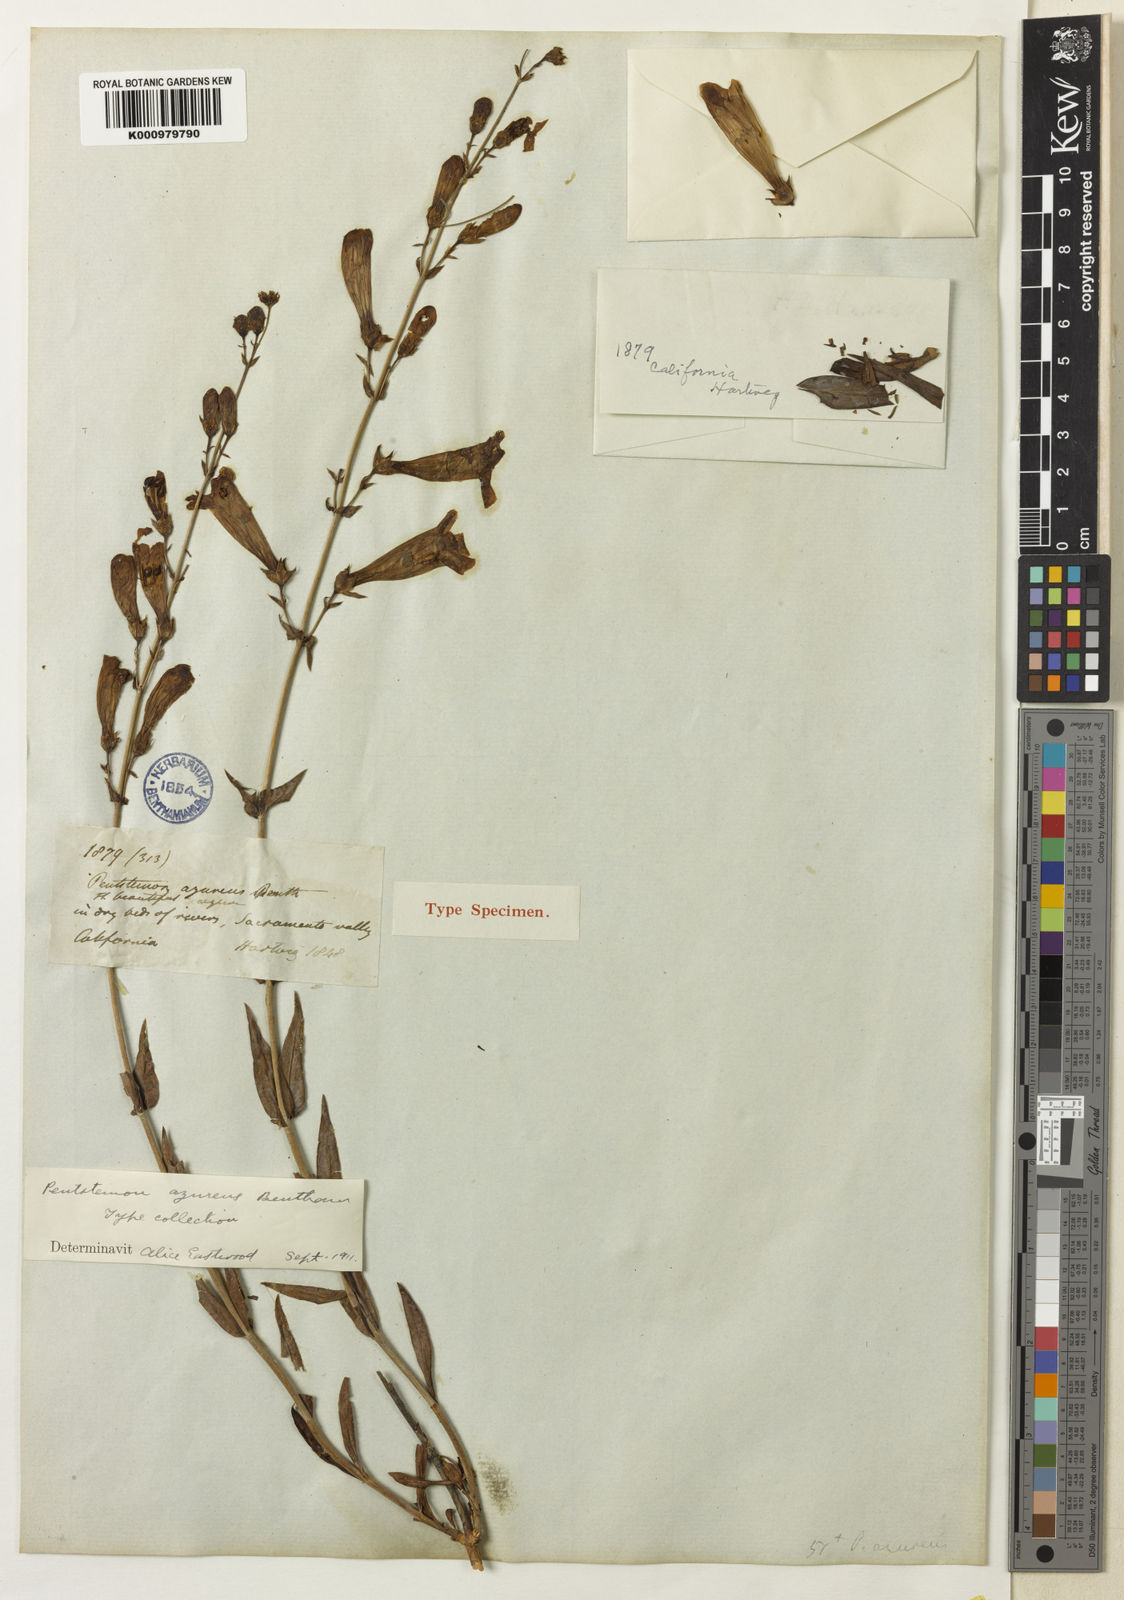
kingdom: Plantae
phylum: Tracheophyta
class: Magnoliopsida
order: Lamiales
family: Plantaginaceae
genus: Penstemon
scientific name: Penstemon
